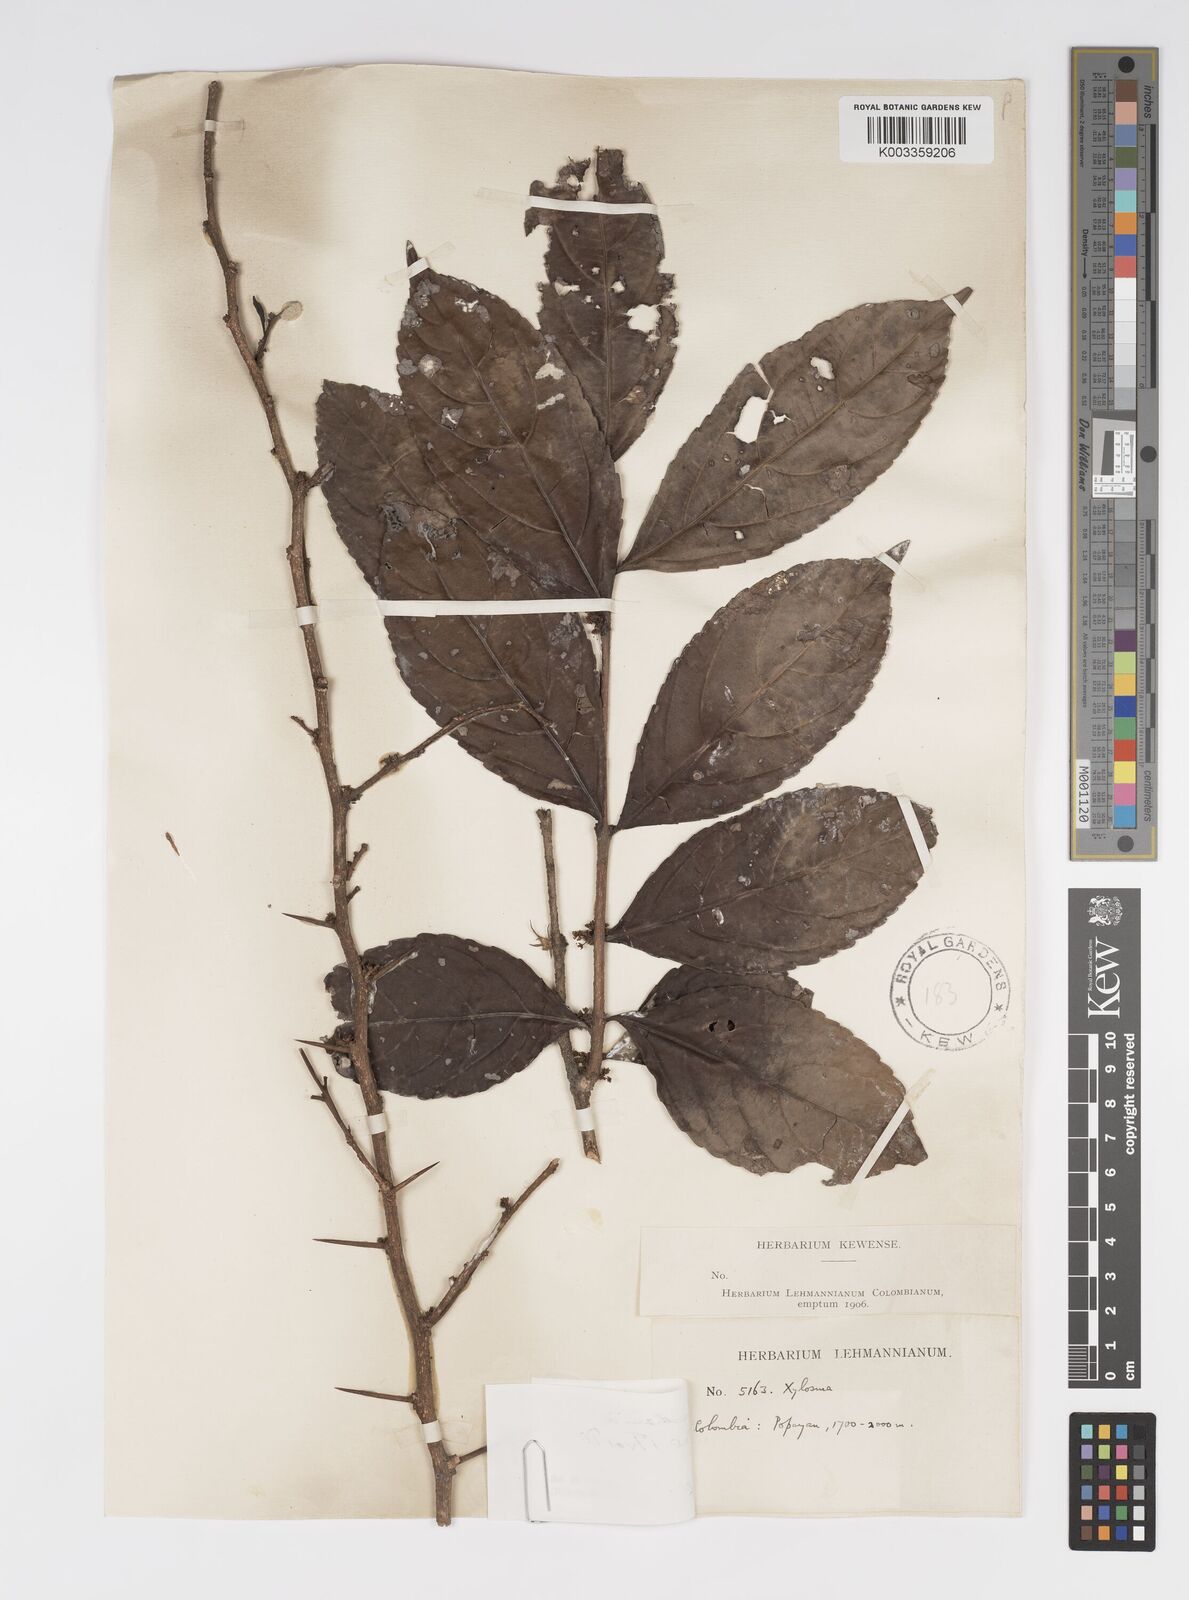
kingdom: Plantae
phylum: Tracheophyta
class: Magnoliopsida
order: Malpighiales
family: Salicaceae
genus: Xylosma
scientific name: Xylosma benthamii
